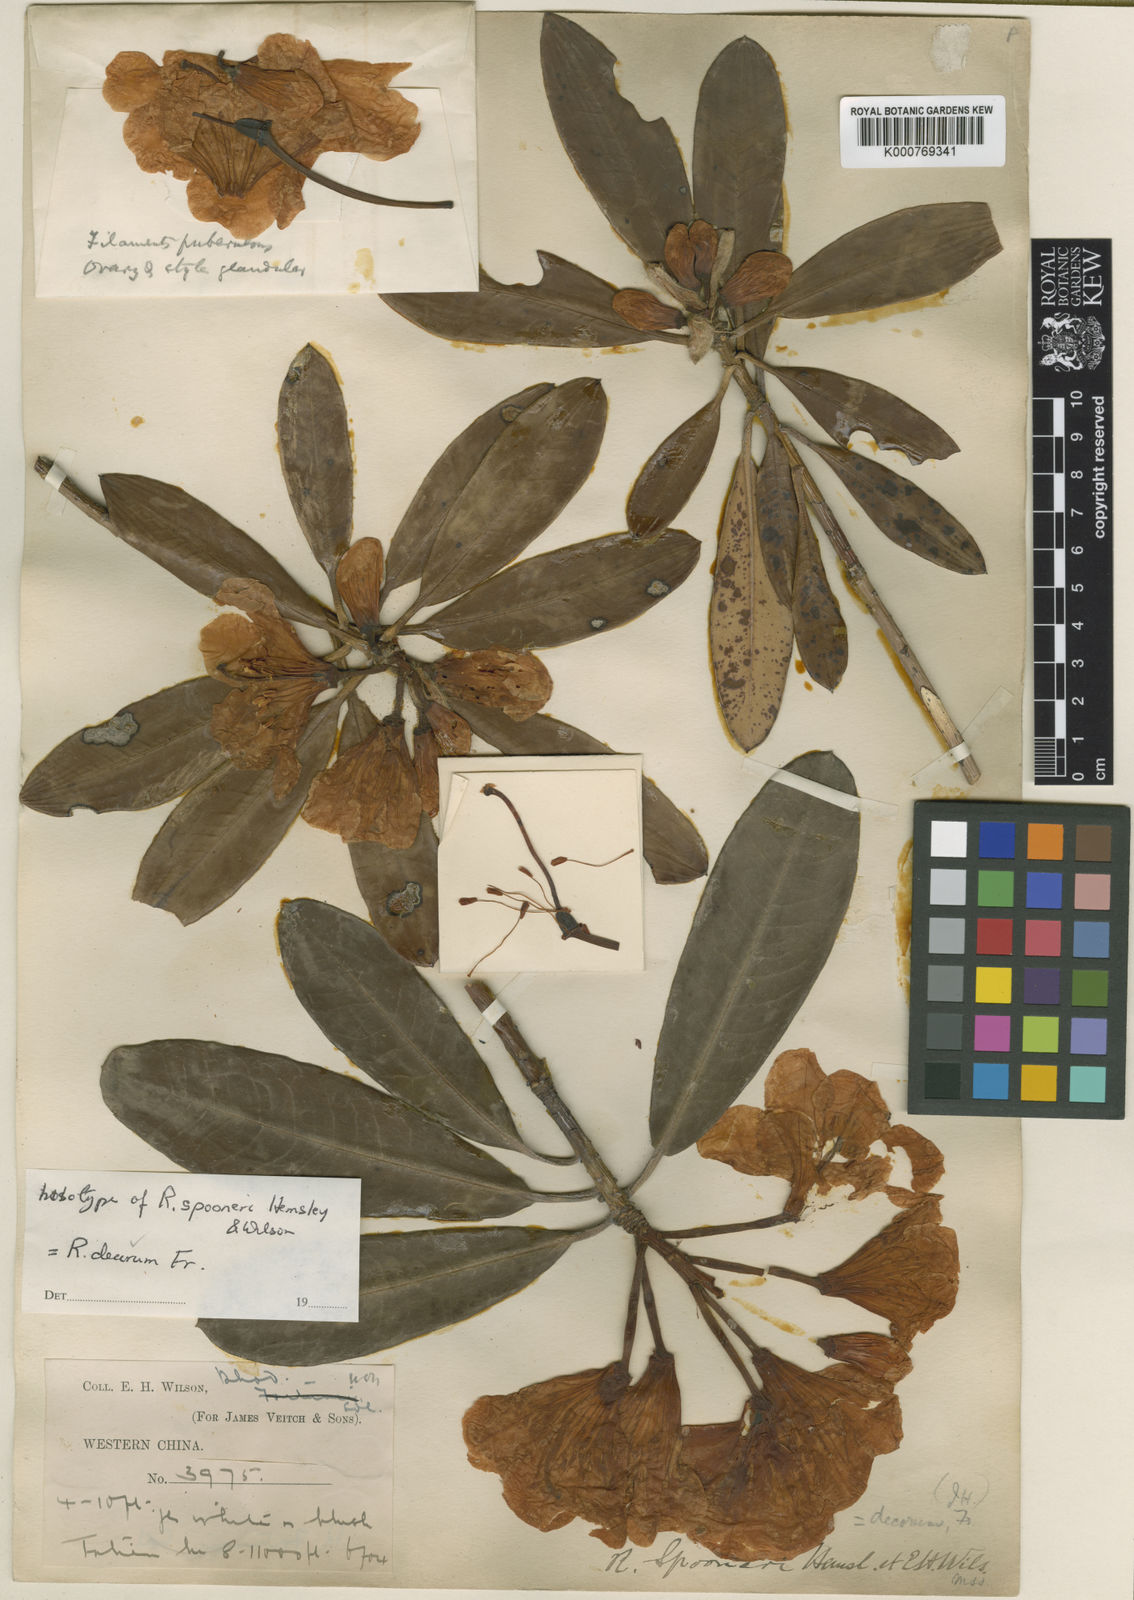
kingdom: Plantae
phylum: Tracheophyta
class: Magnoliopsida
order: Ericales
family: Ericaceae
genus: Rhododendron
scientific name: Rhododendron decorum
